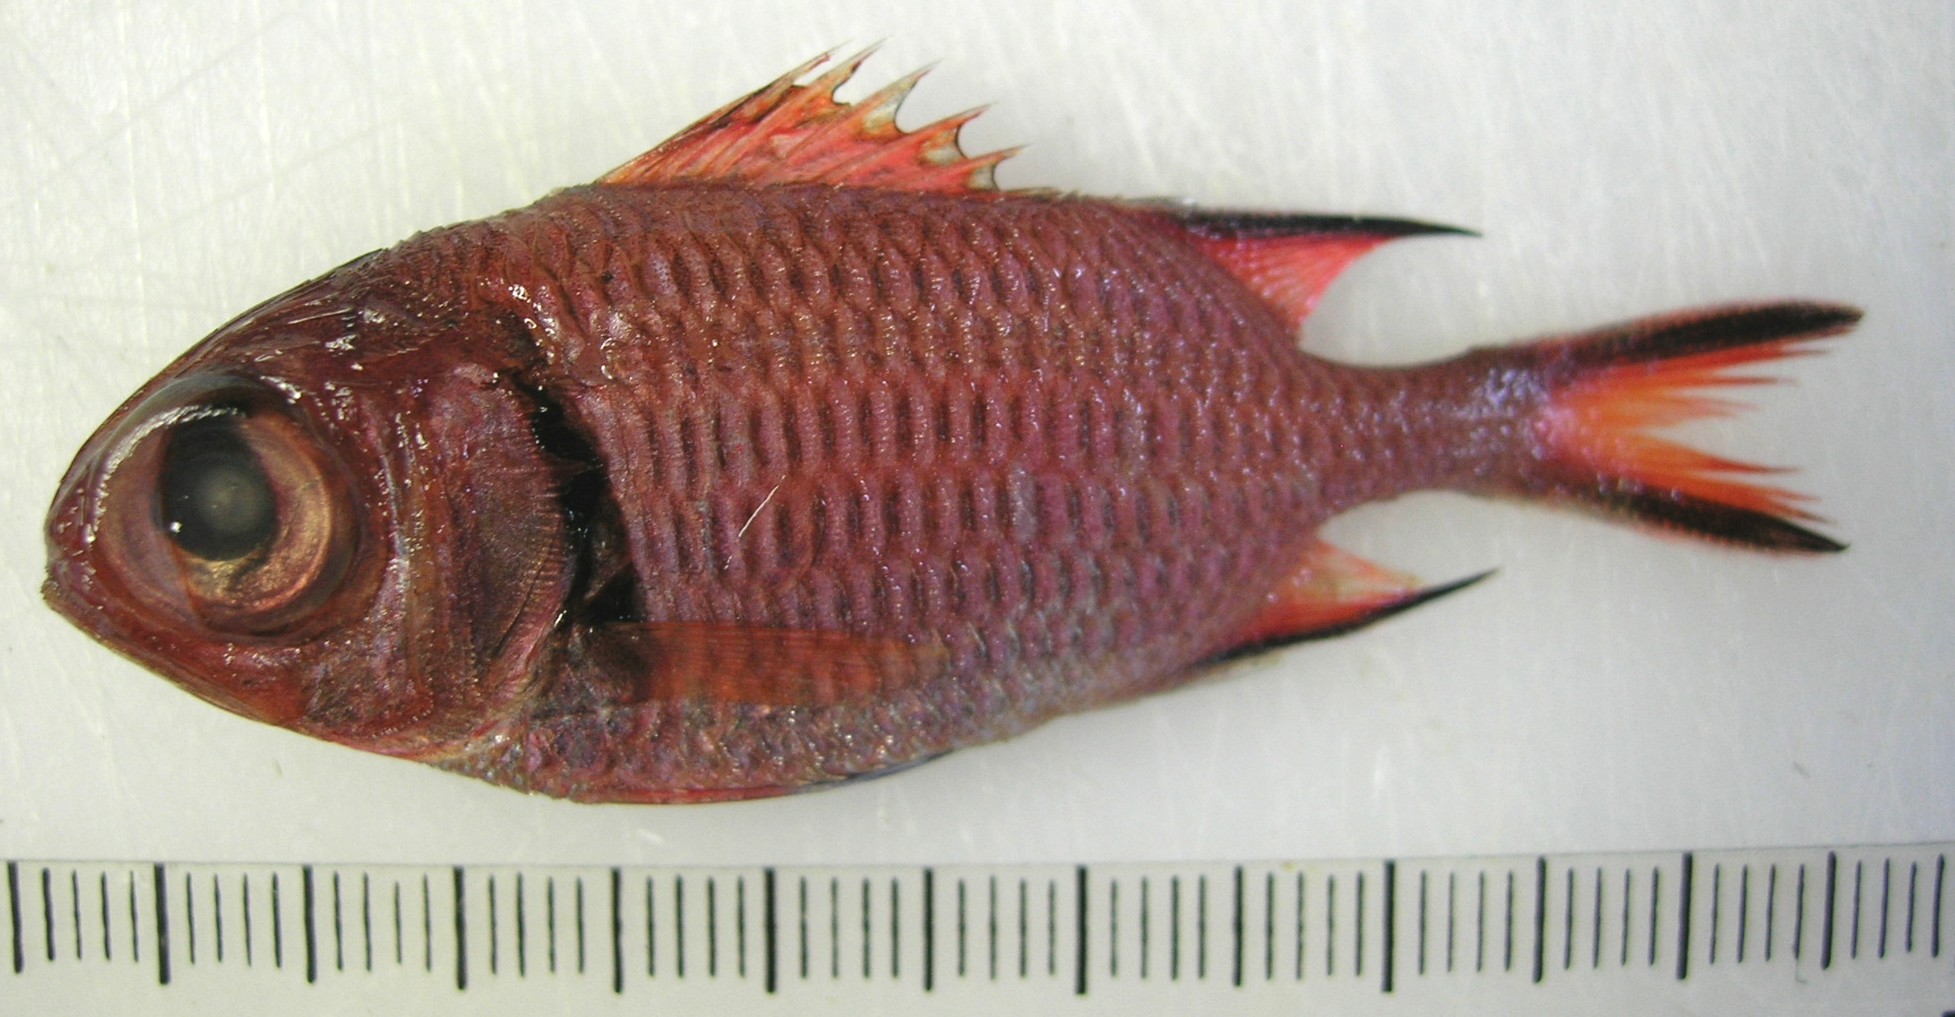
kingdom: Animalia
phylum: Chordata
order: Beryciformes
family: Holocentridae
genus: Myripristis
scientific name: Myripristis murdjan
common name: Big-eye soldierfish
